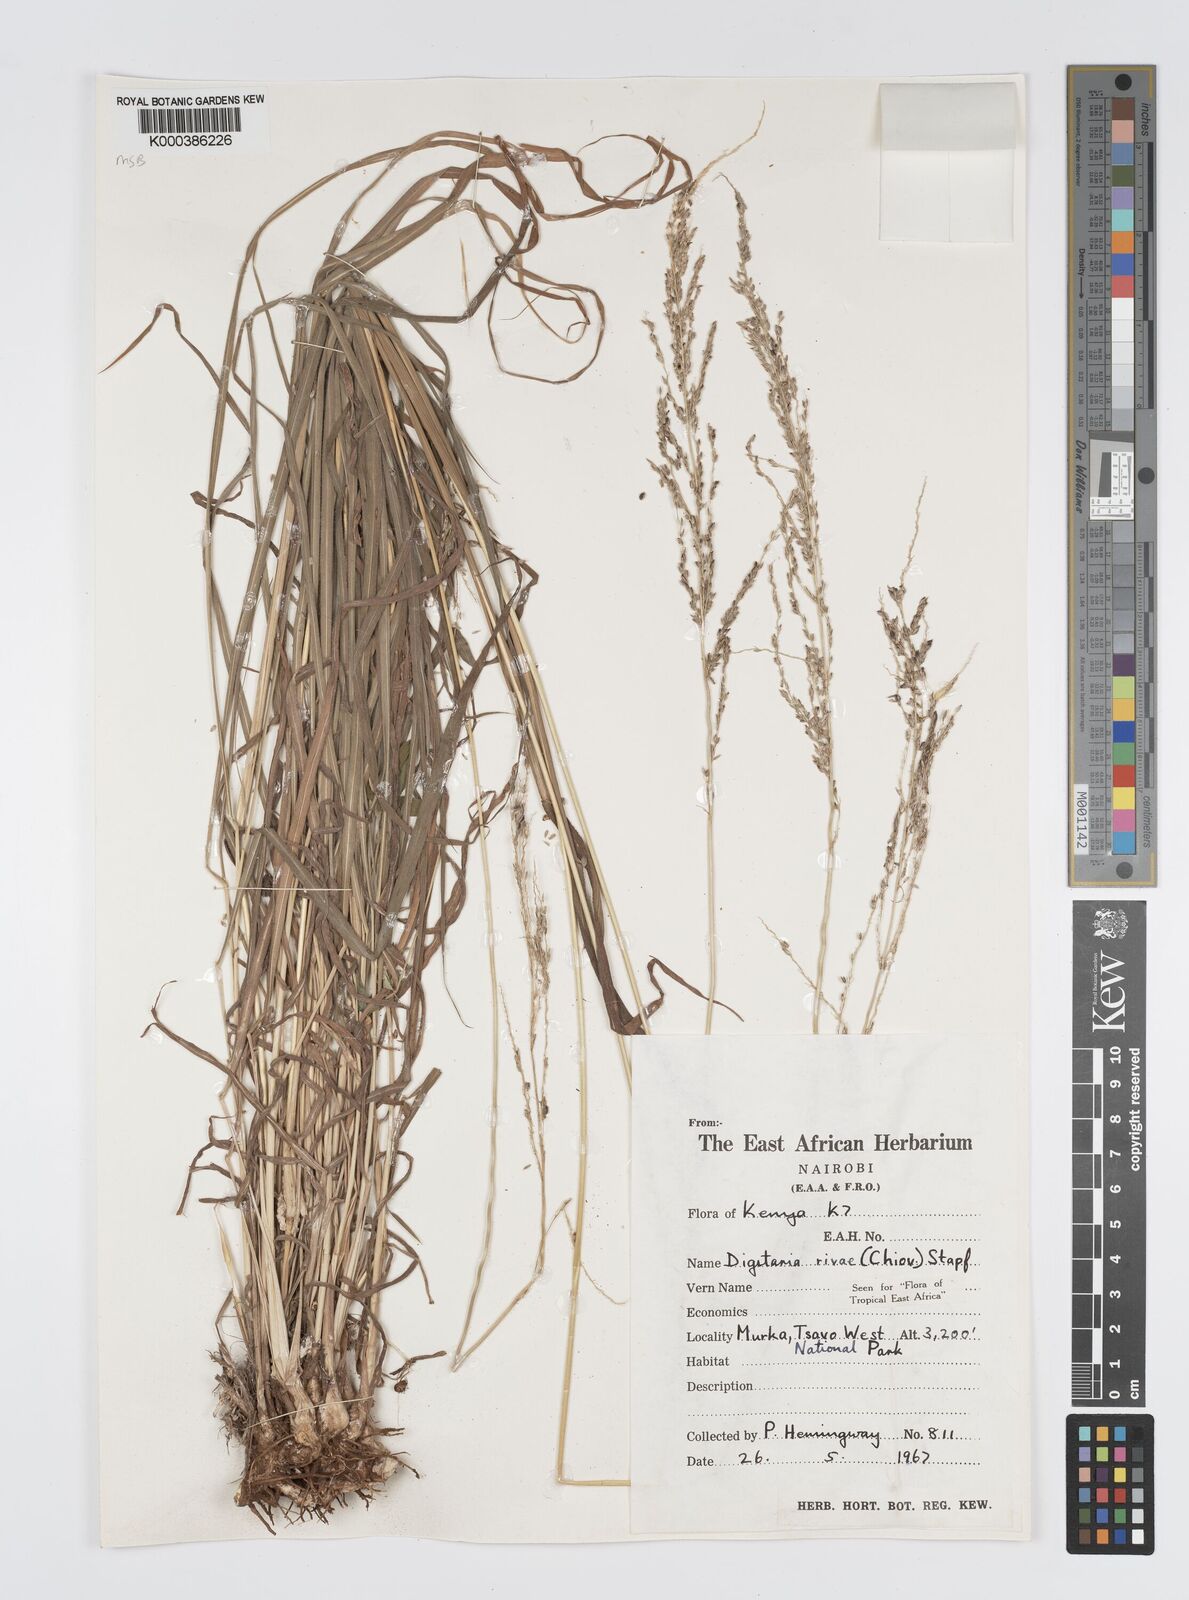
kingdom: Plantae
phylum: Tracheophyta
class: Liliopsida
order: Poales
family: Poaceae
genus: Digitaria
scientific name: Digitaria rivae
